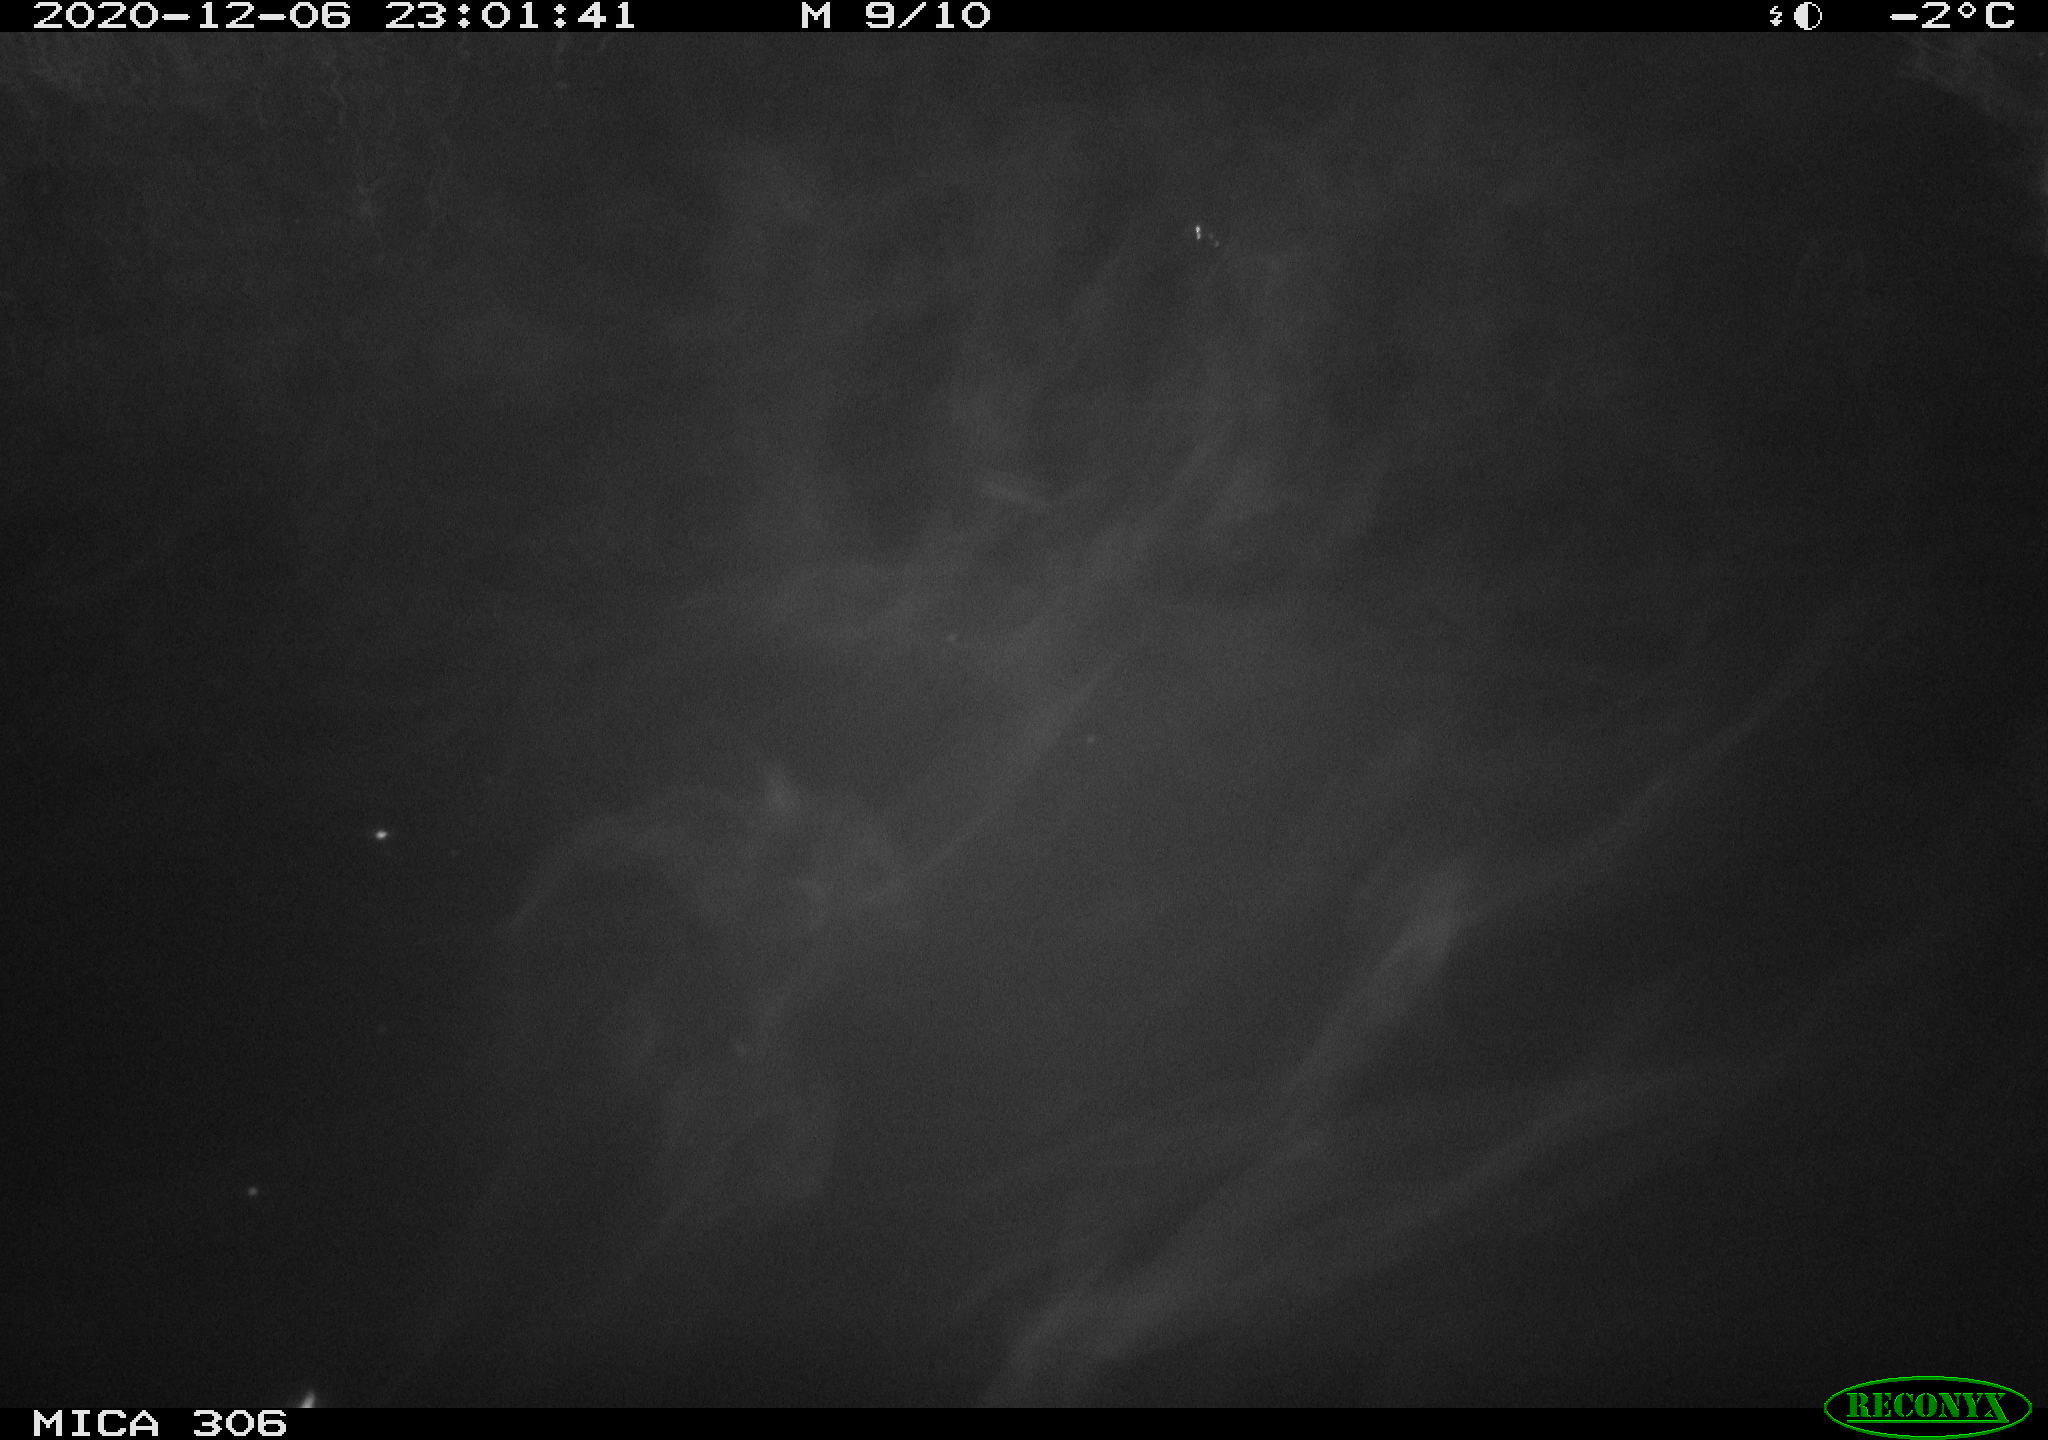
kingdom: Animalia
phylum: Chordata
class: Mammalia
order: Rodentia
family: Cricetidae
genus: Ondatra
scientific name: Ondatra zibethicus
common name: Muskrat
